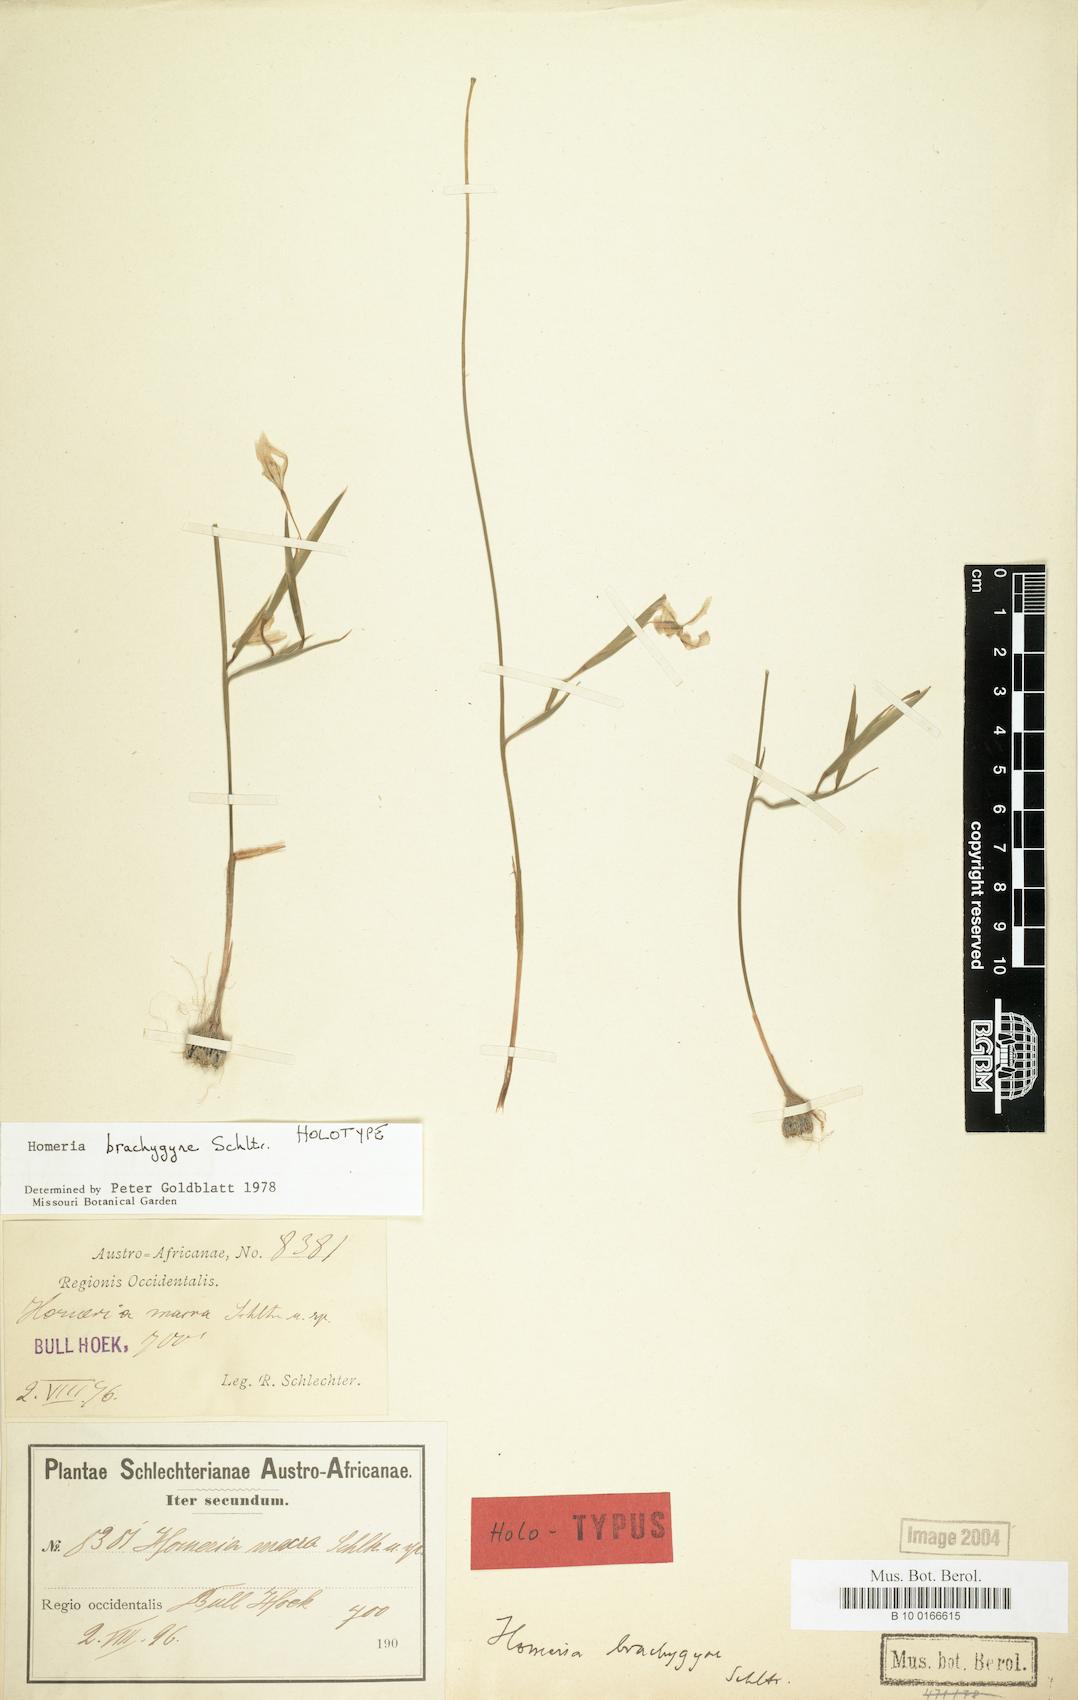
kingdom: Plantae
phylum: Tracheophyta
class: Liliopsida
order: Asparagales
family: Iridaceae
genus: Moraea
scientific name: Moraea brachygyne
